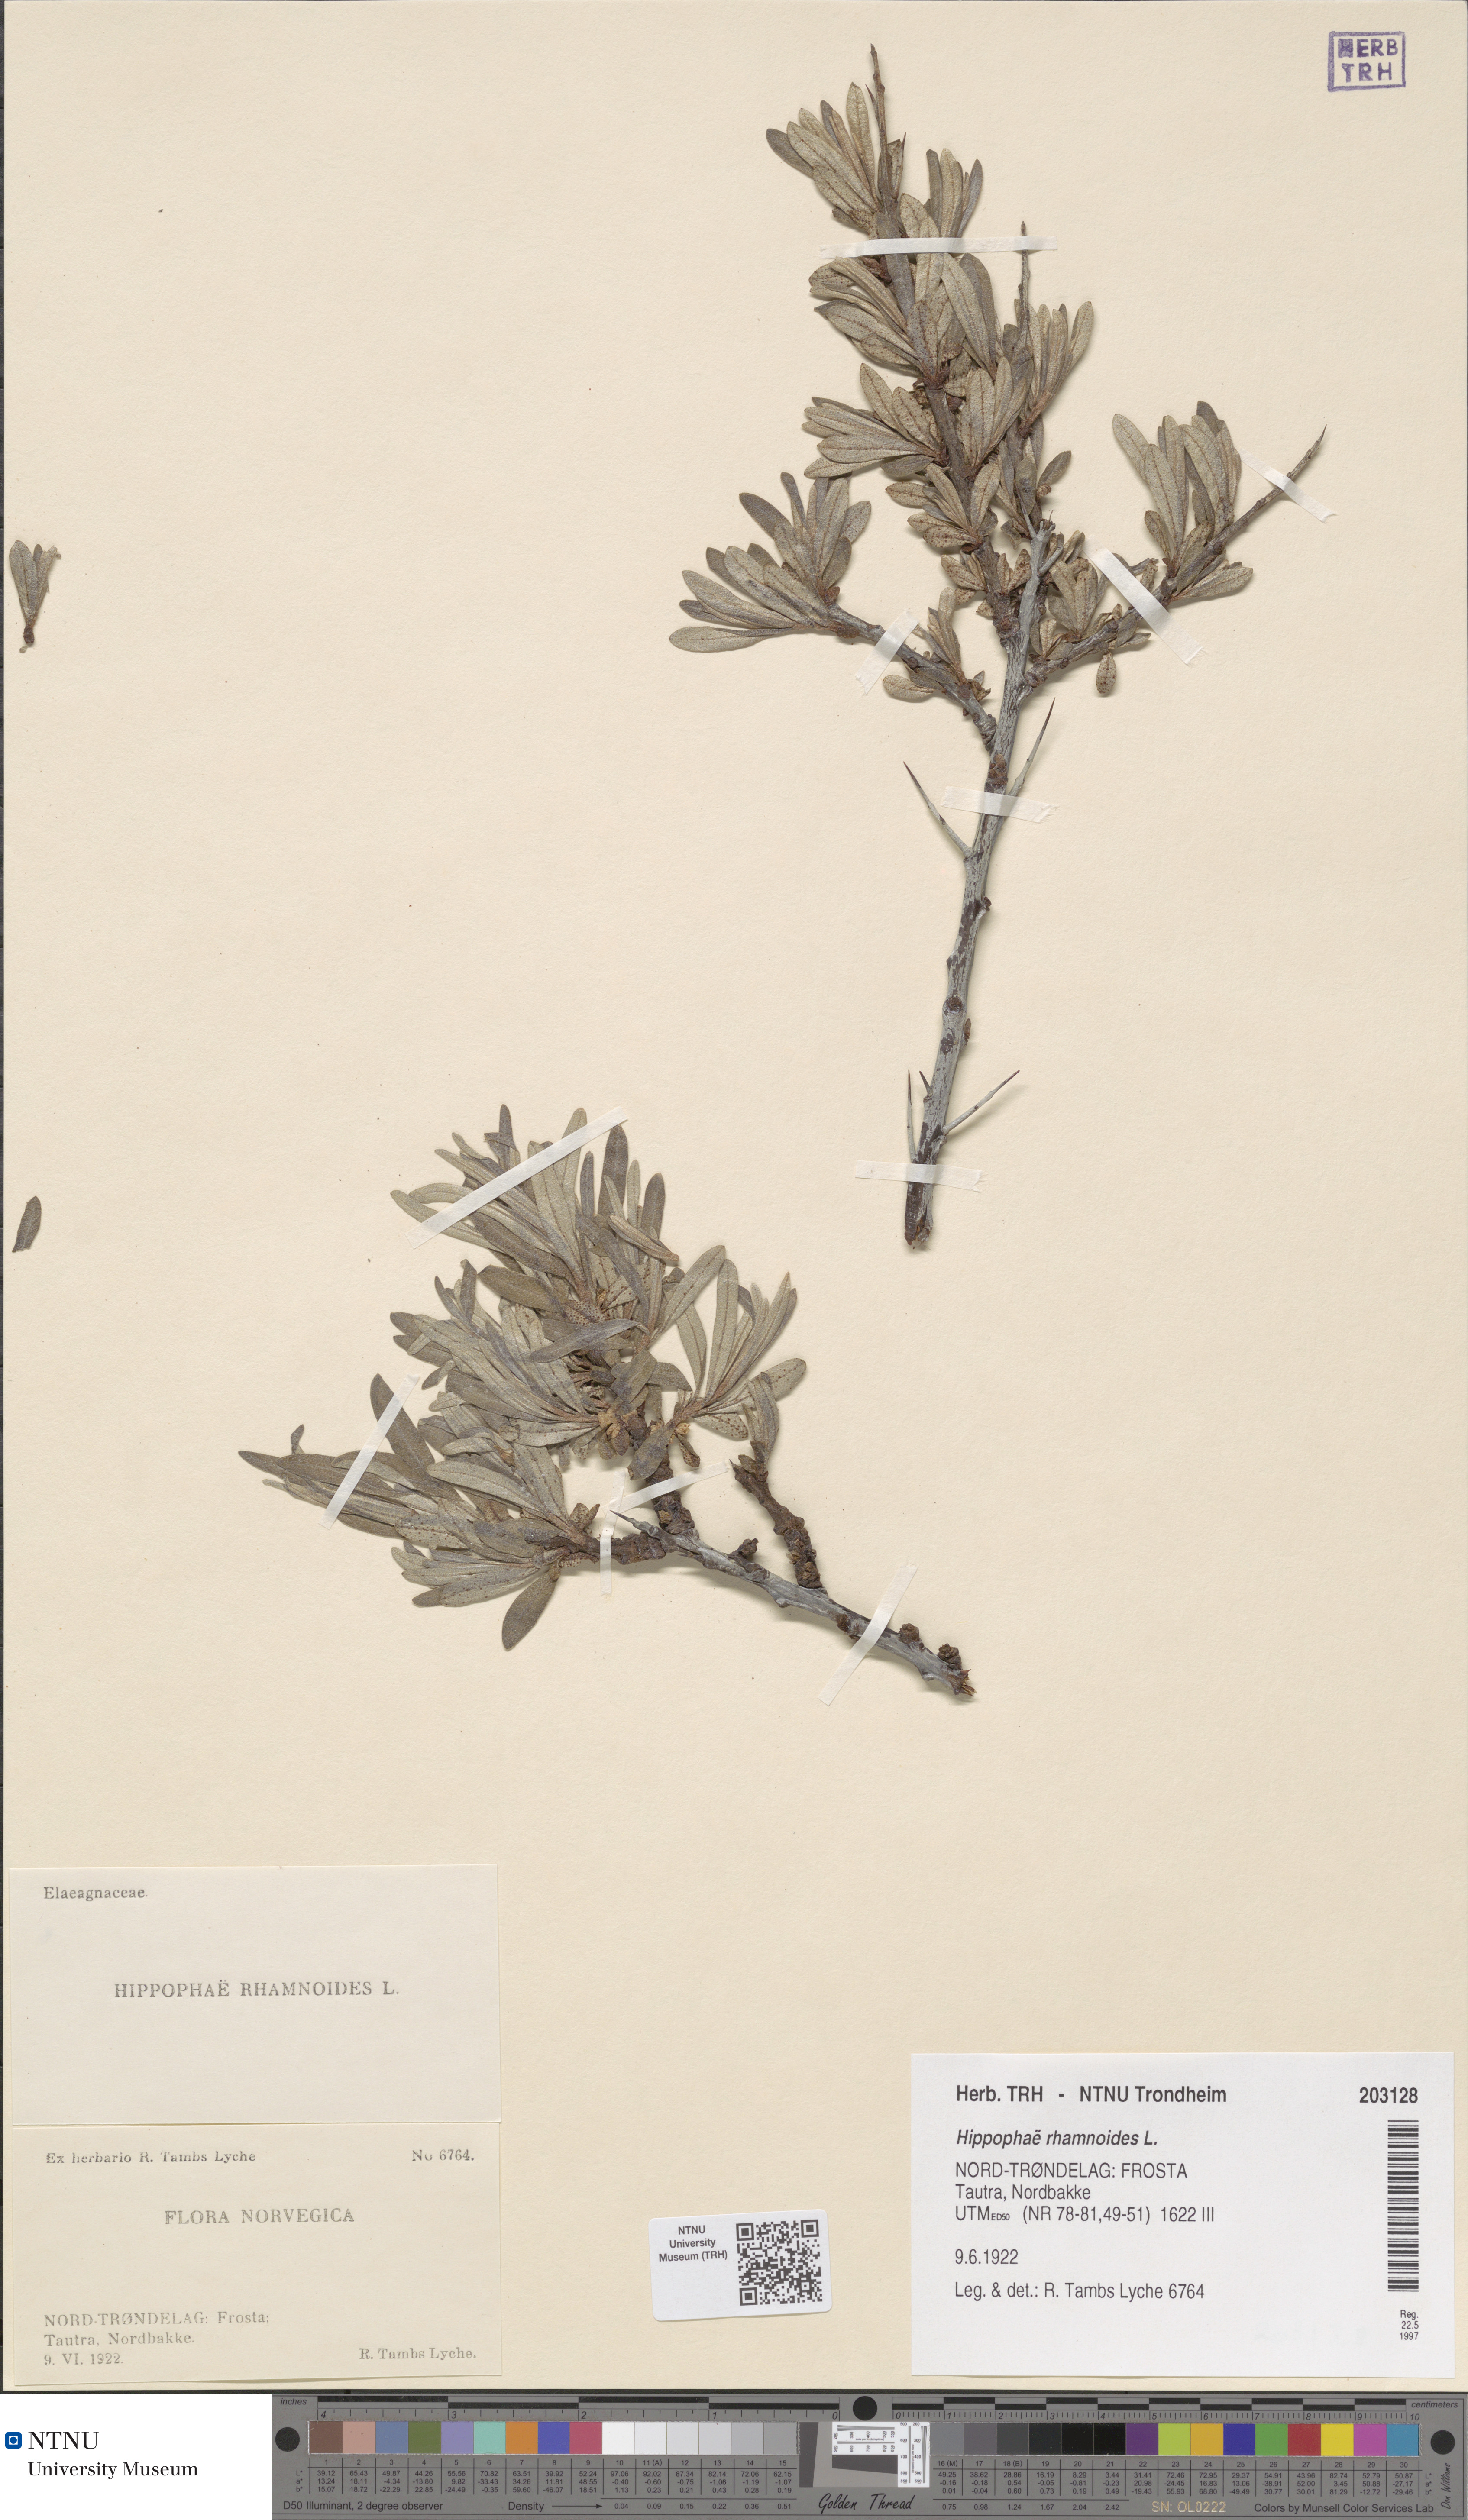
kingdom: Plantae
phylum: Tracheophyta
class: Magnoliopsida
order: Rosales
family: Elaeagnaceae
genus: Hippophae
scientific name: Hippophae rhamnoides
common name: Sea-buckthorn
